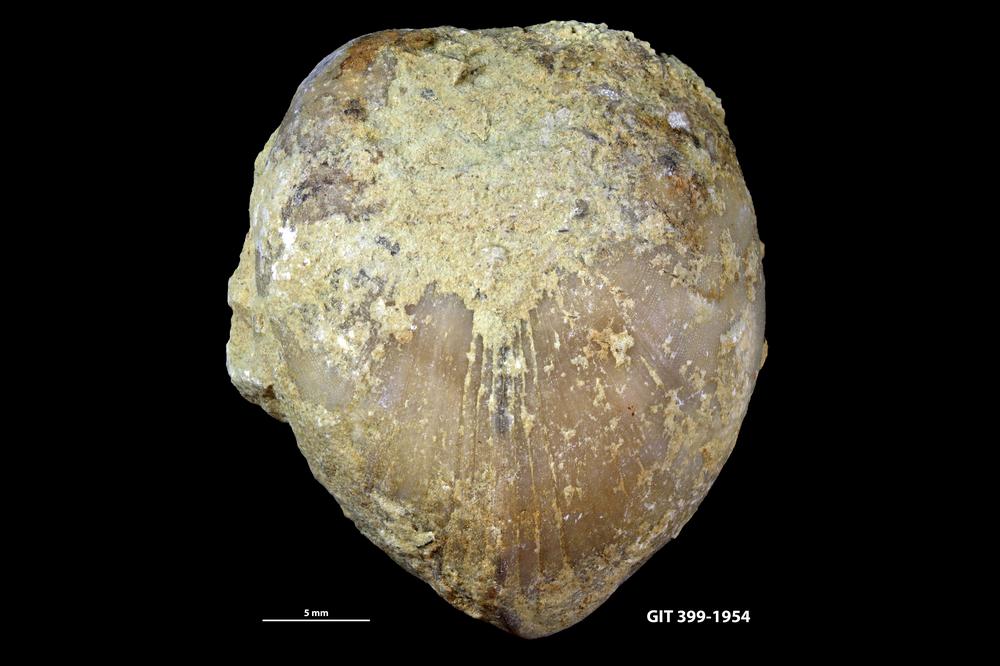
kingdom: Animalia
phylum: Brachiopoda
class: Rhynchonellata
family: Porambonitidae
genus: Porambonites
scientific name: Porambonites
